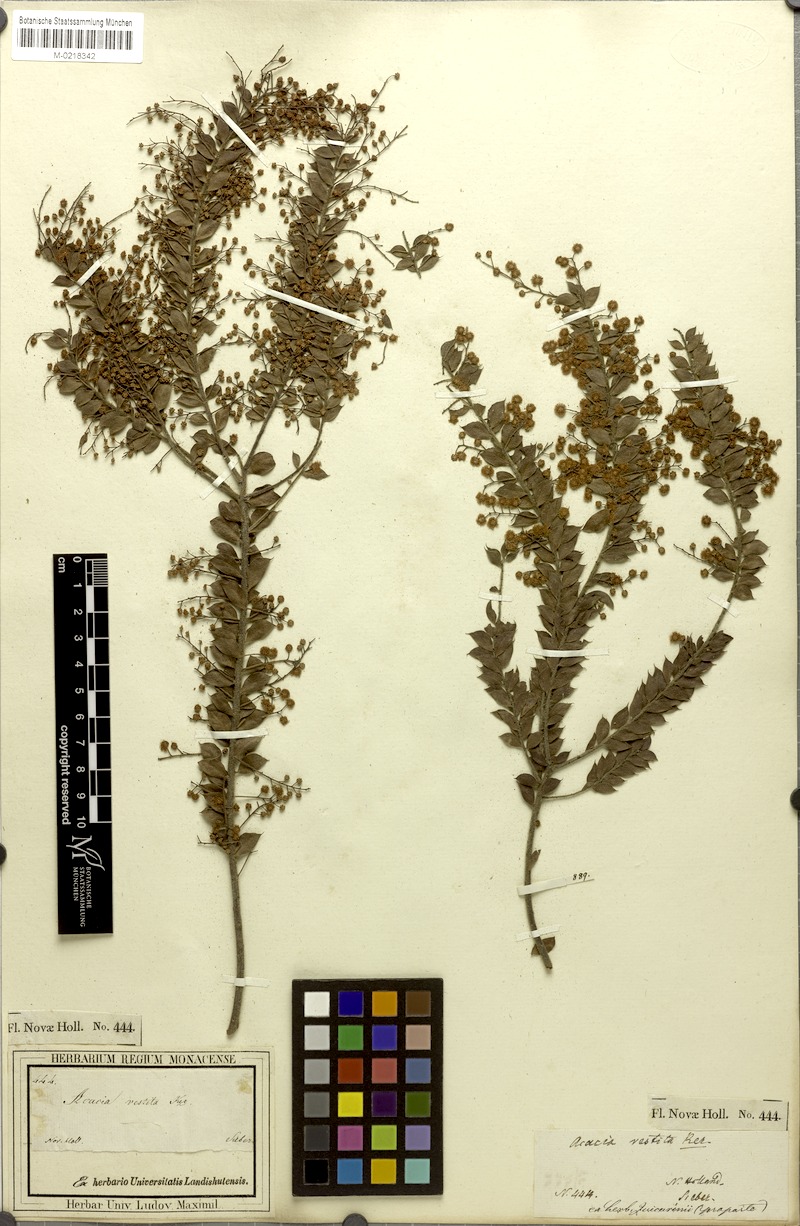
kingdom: Plantae
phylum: Tracheophyta
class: Magnoliopsida
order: Fabales
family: Fabaceae
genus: Acacia
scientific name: Acacia vestita
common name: Hairy wattle
